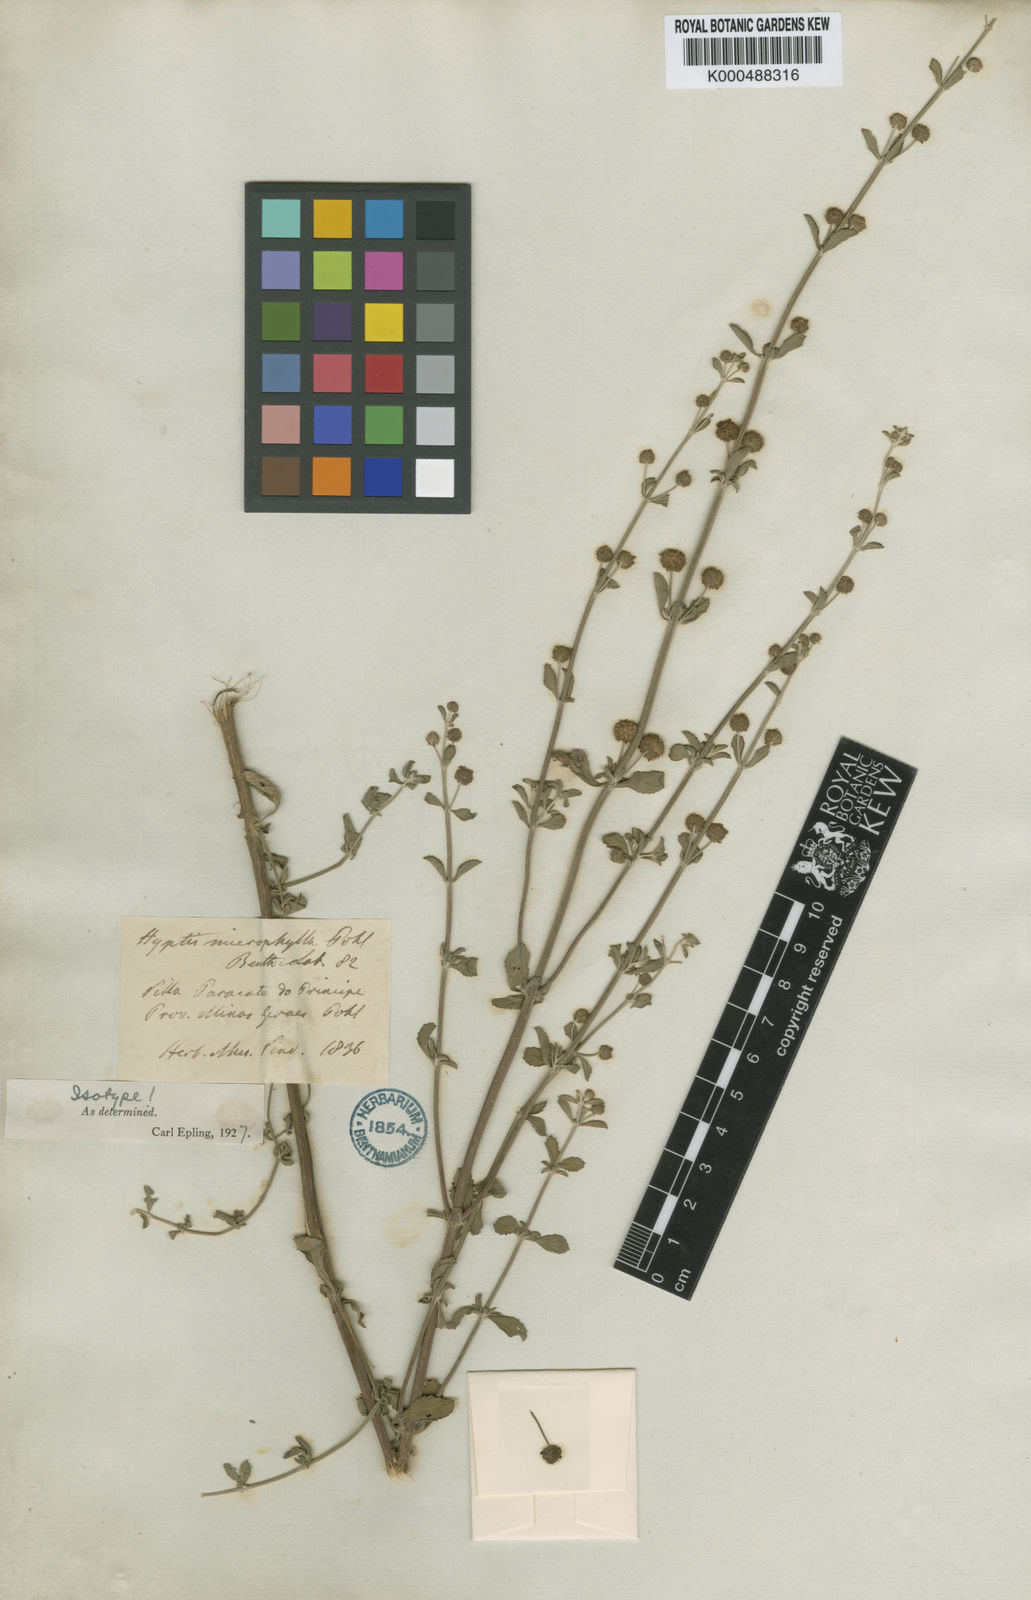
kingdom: Plantae
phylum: Tracheophyta
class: Magnoliopsida
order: Lamiales
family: Lamiaceae
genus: Hyptis
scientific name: Hyptis microphylla
